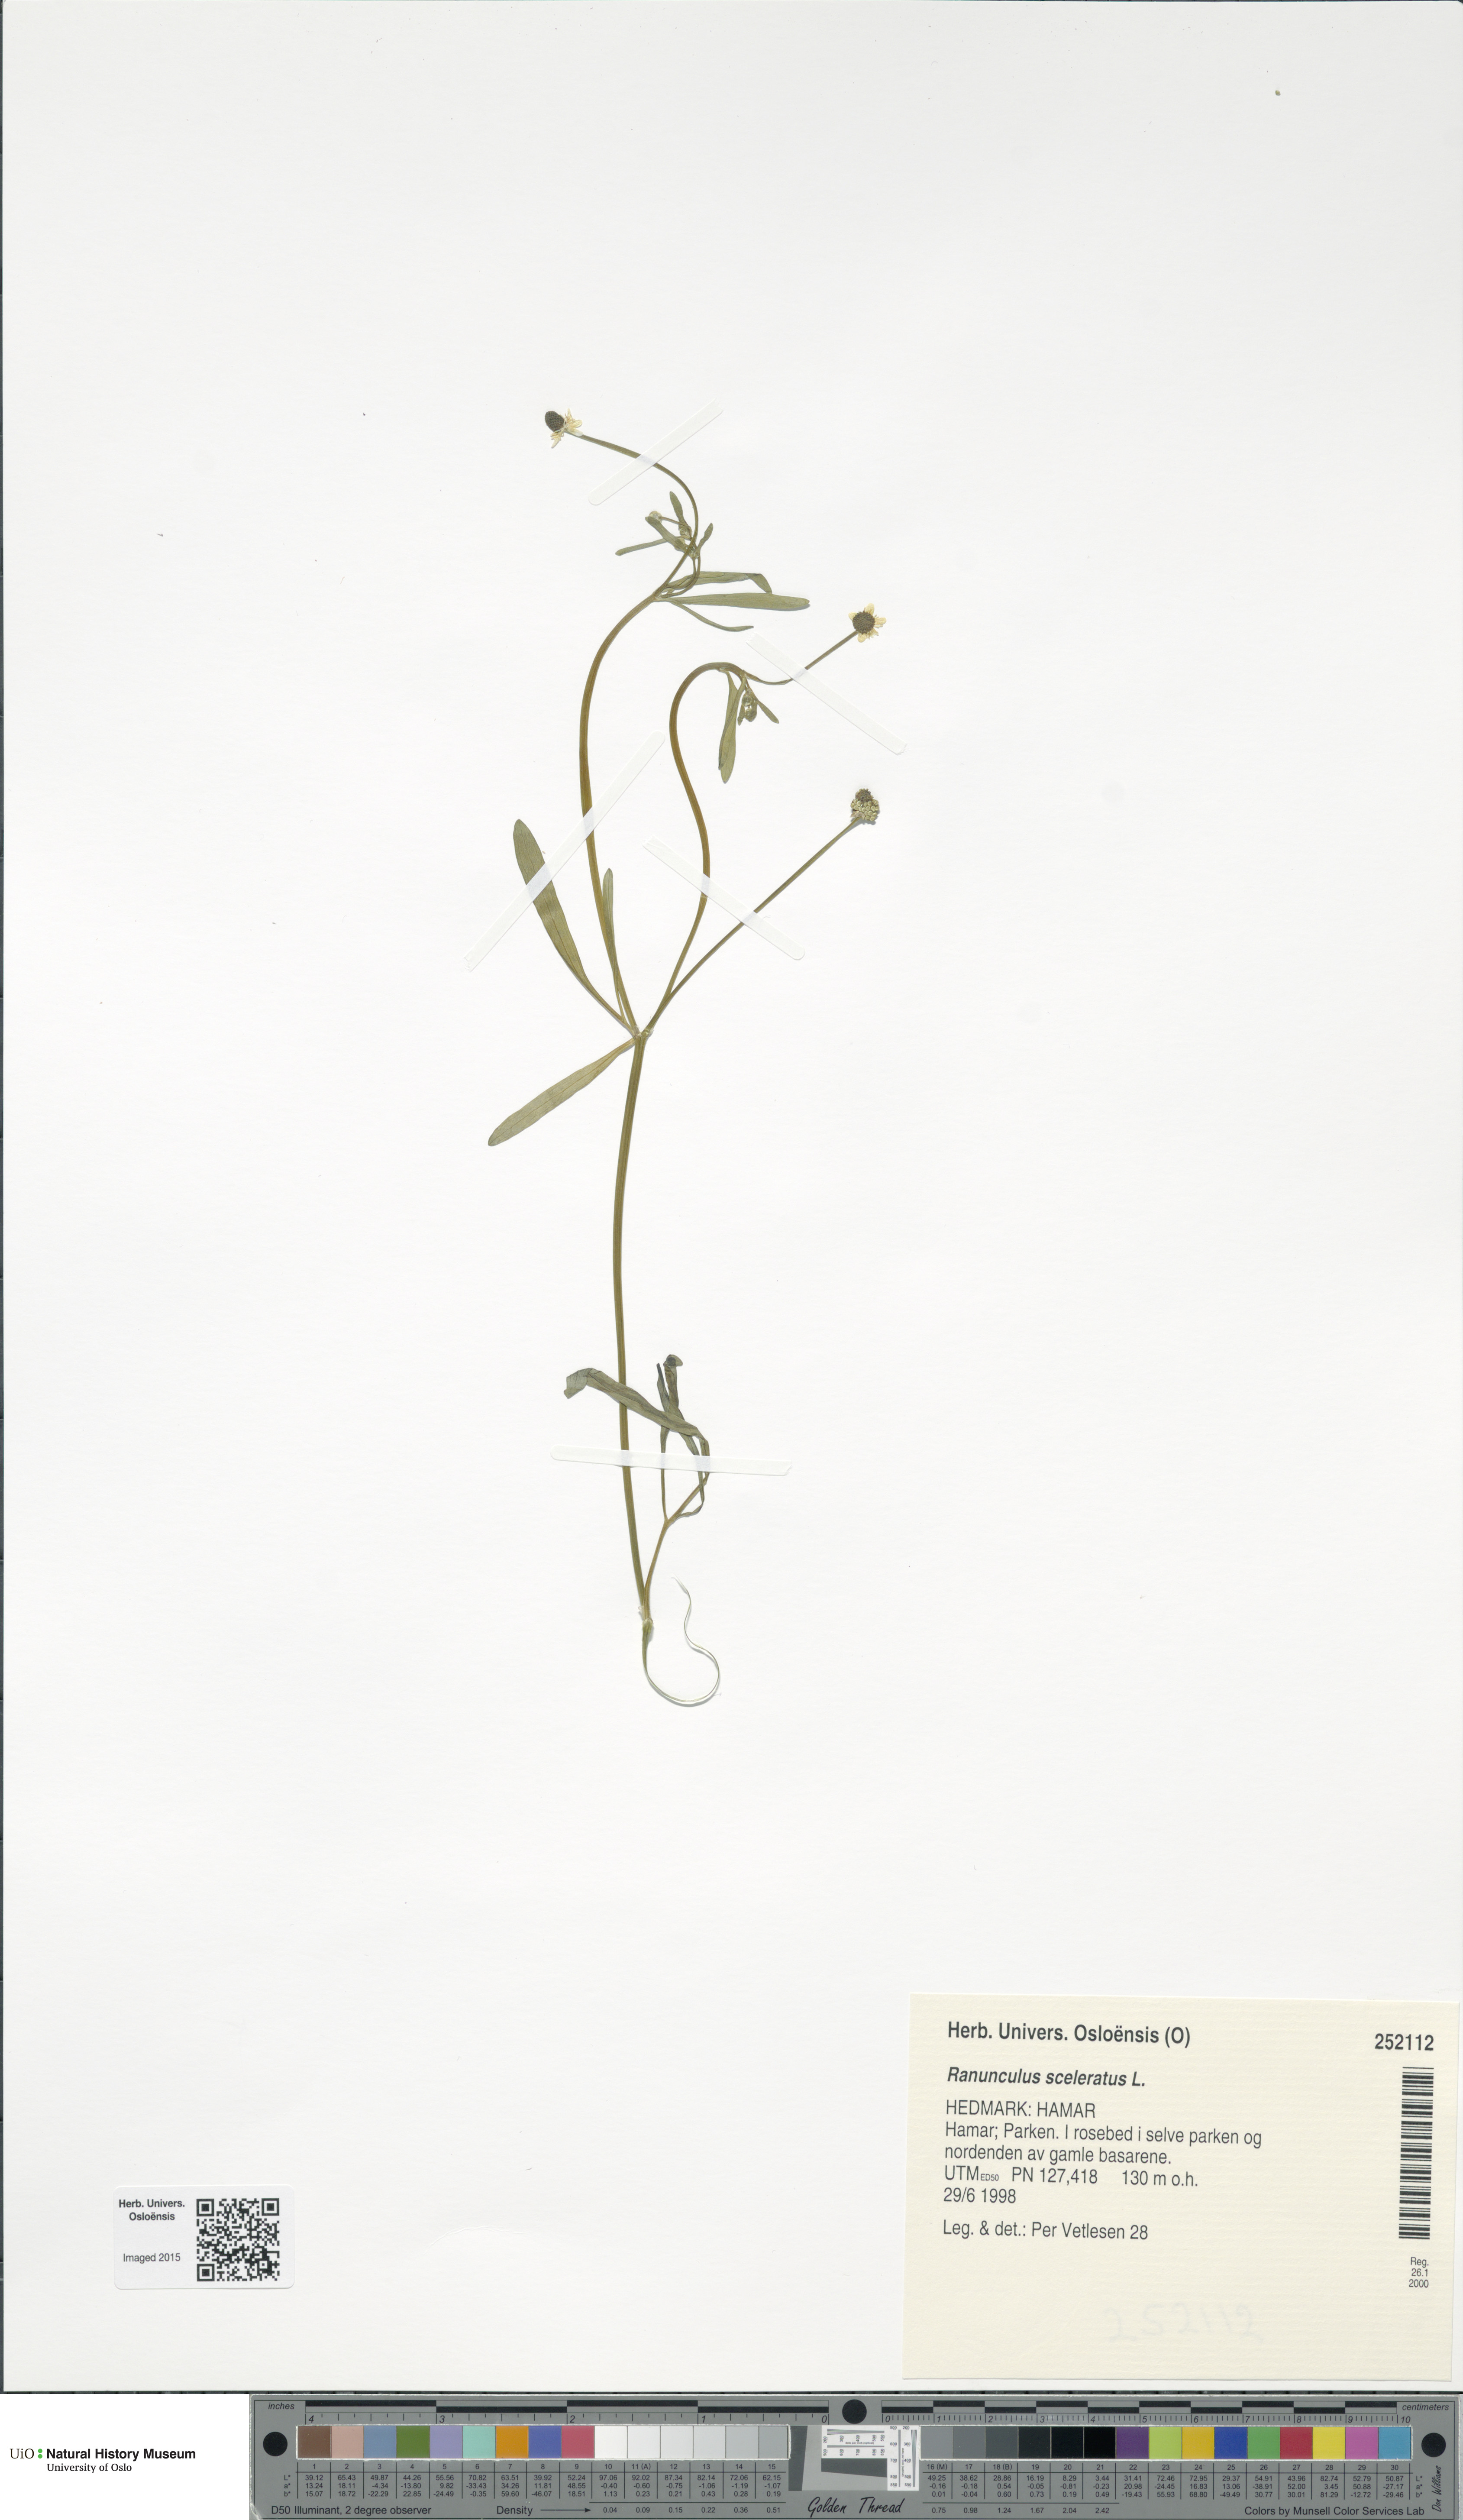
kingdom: Plantae
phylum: Tracheophyta
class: Magnoliopsida
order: Ranunculales
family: Ranunculaceae
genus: Ranunculus
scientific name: Ranunculus sceleratus
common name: Celery-leaved buttercup
